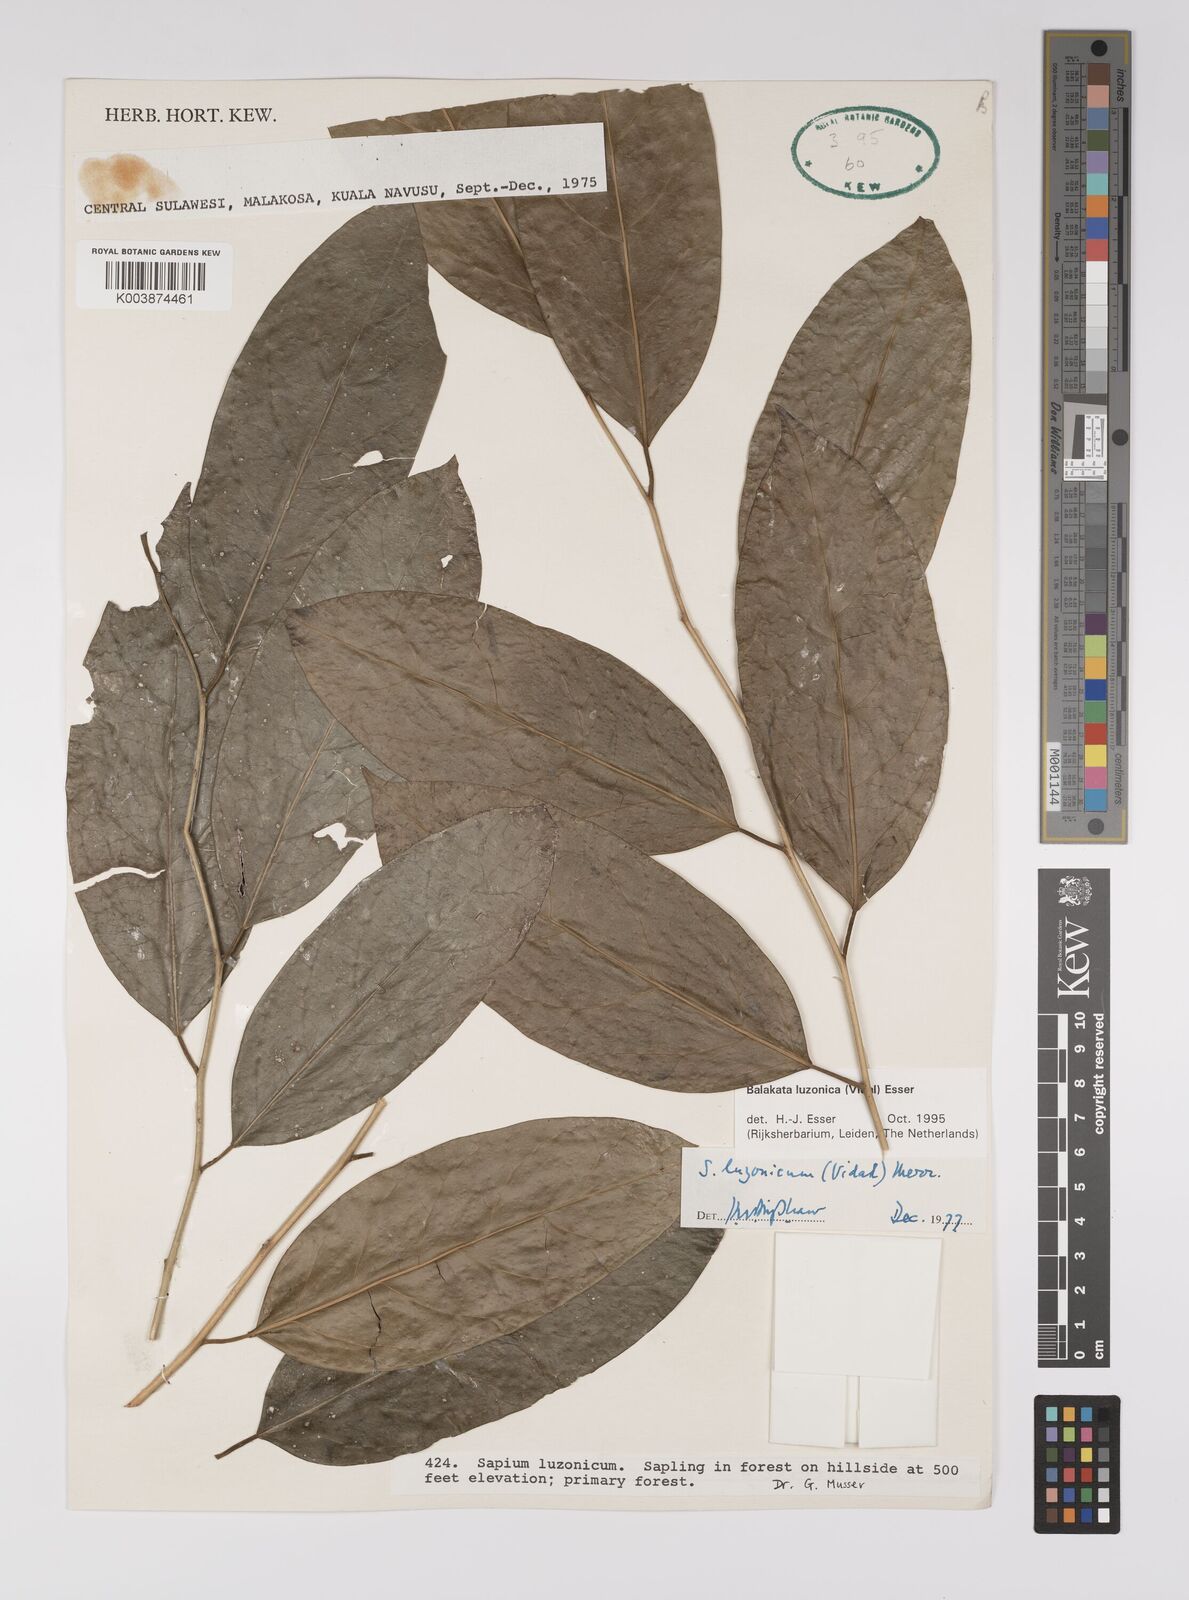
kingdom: Plantae
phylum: Tracheophyta
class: Magnoliopsida
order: Malpighiales
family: Euphorbiaceae
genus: Balakata
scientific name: Balakata luzonica
